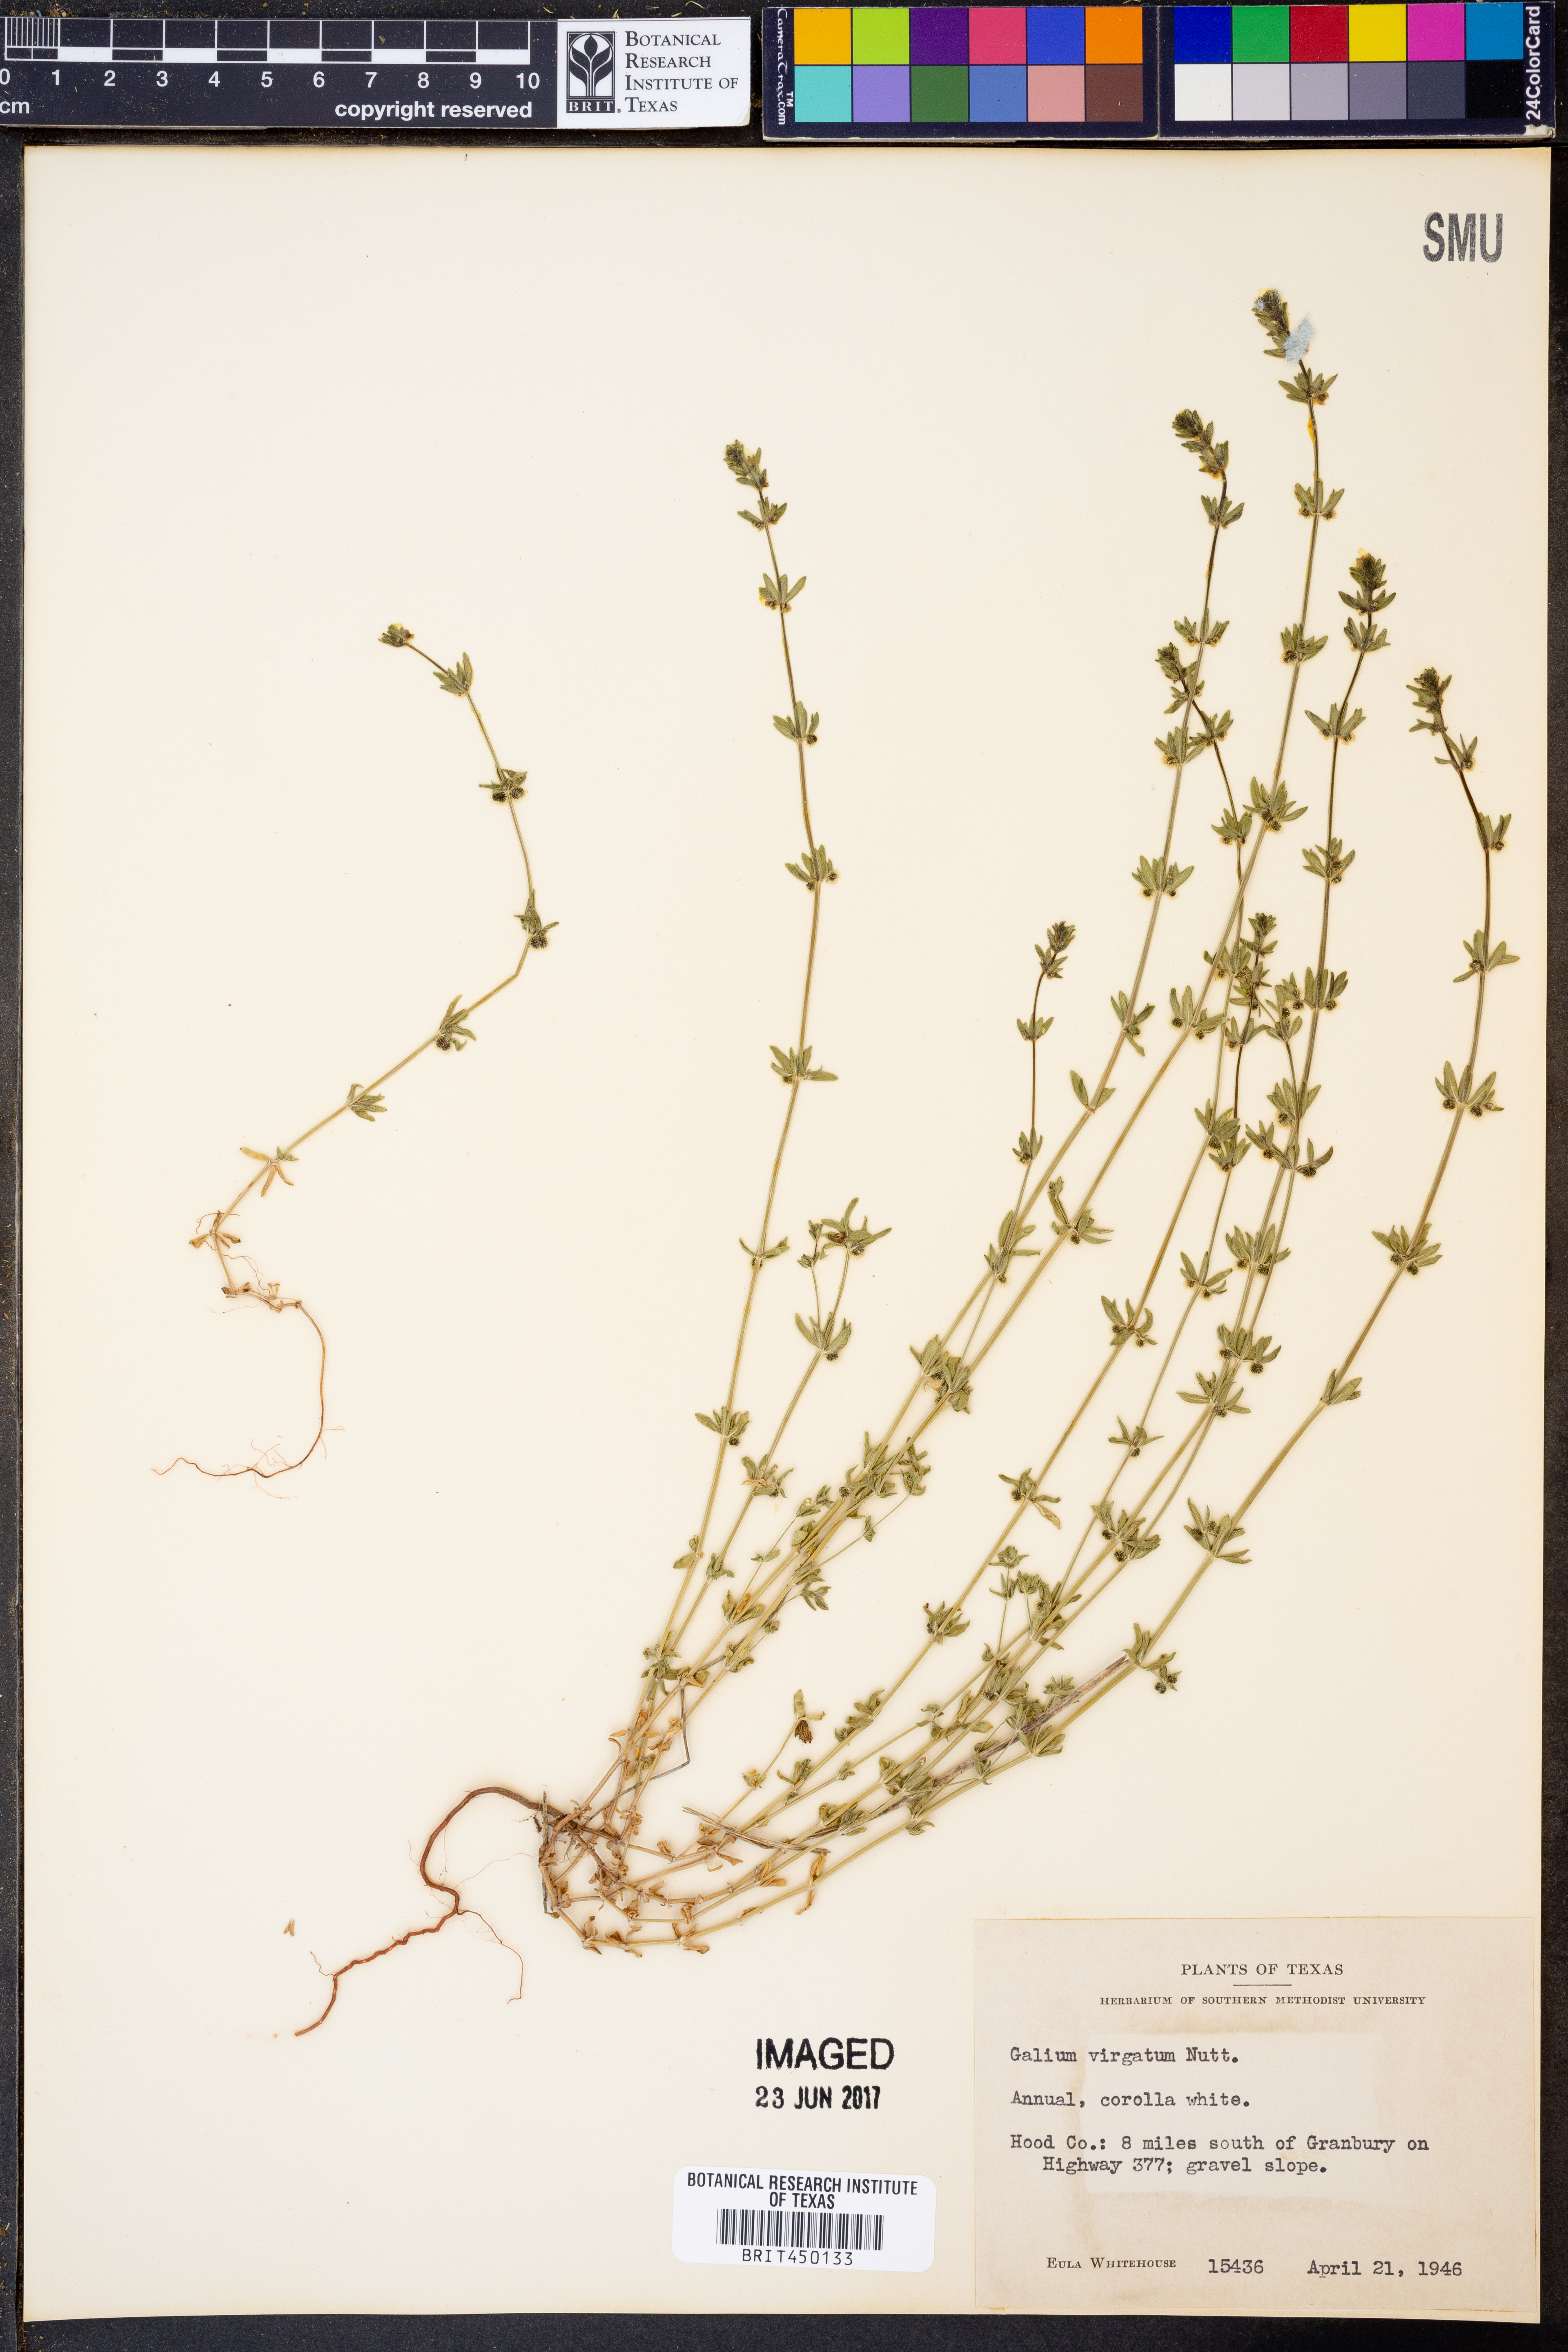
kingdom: Plantae
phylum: Tracheophyta
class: Magnoliopsida
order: Gentianales
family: Rubiaceae
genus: Galium
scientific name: Galium virgatum
